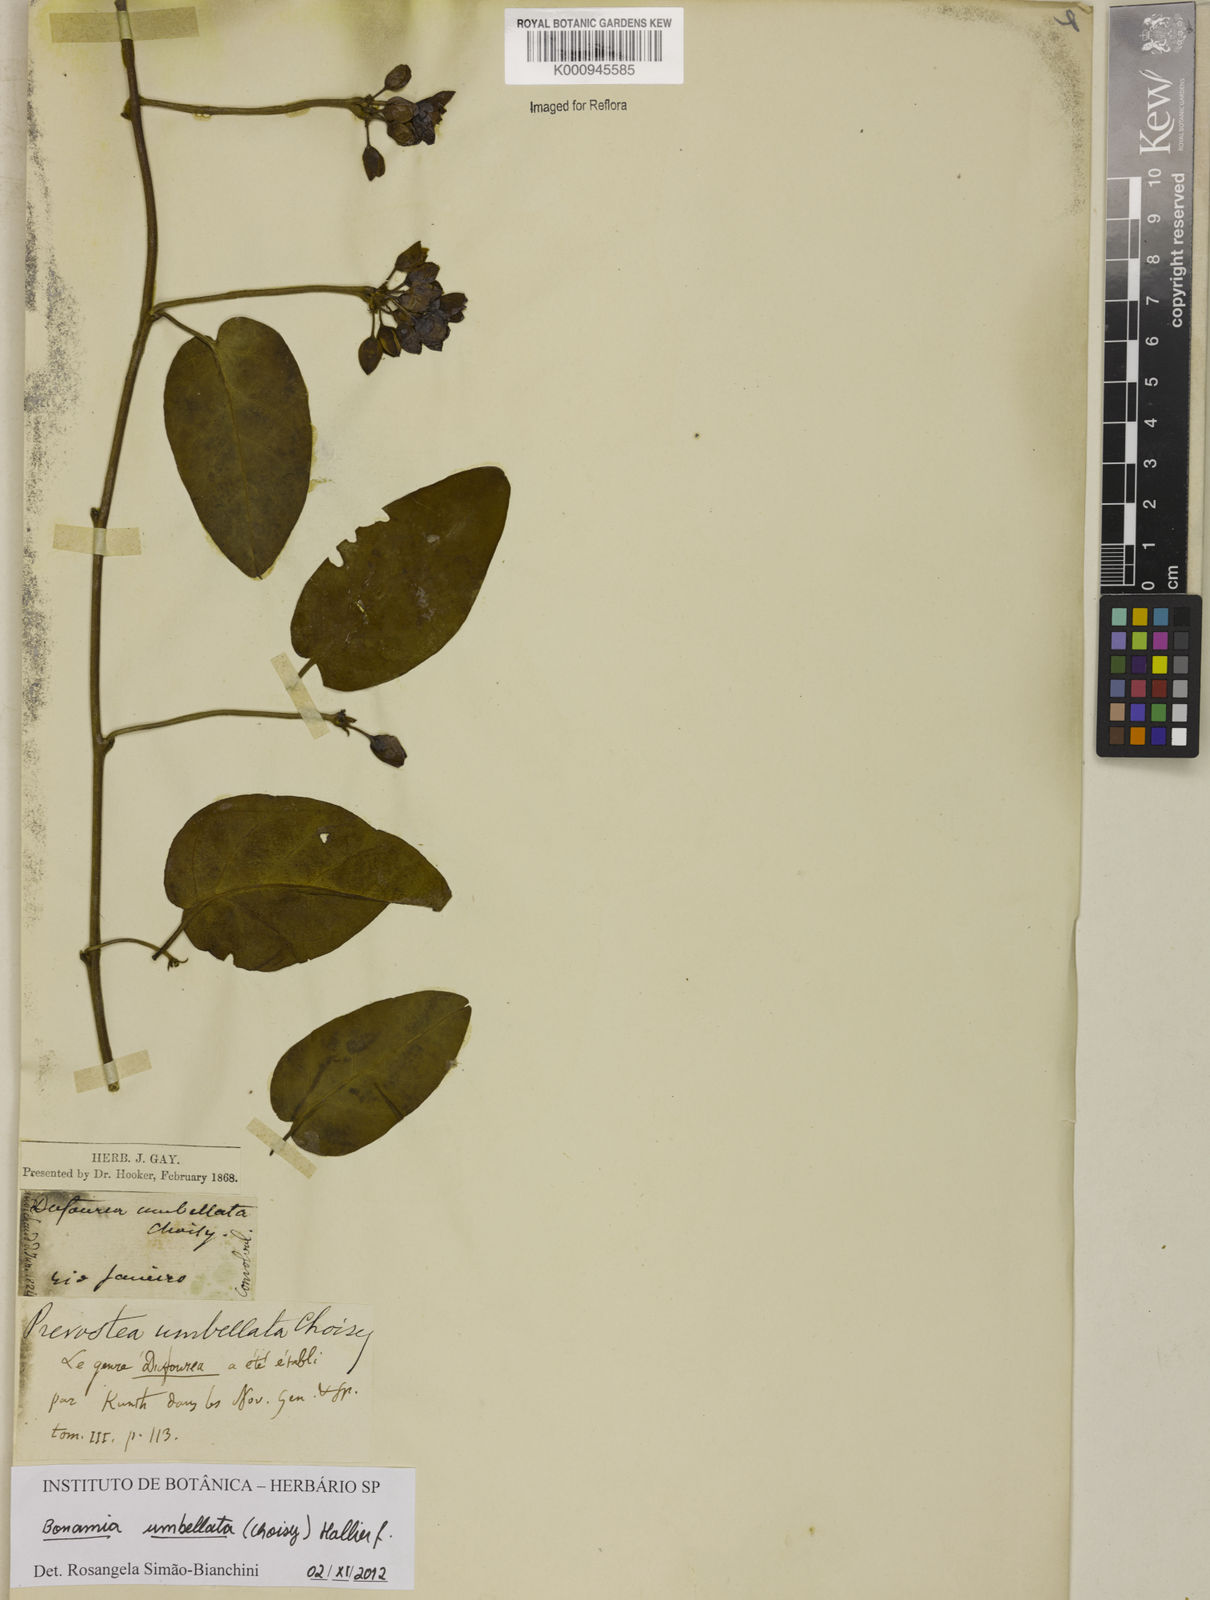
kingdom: Plantae
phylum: Tracheophyta
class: Magnoliopsida
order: Solanales
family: Convolvulaceae
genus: Bonamia
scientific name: Bonamia umbellata
